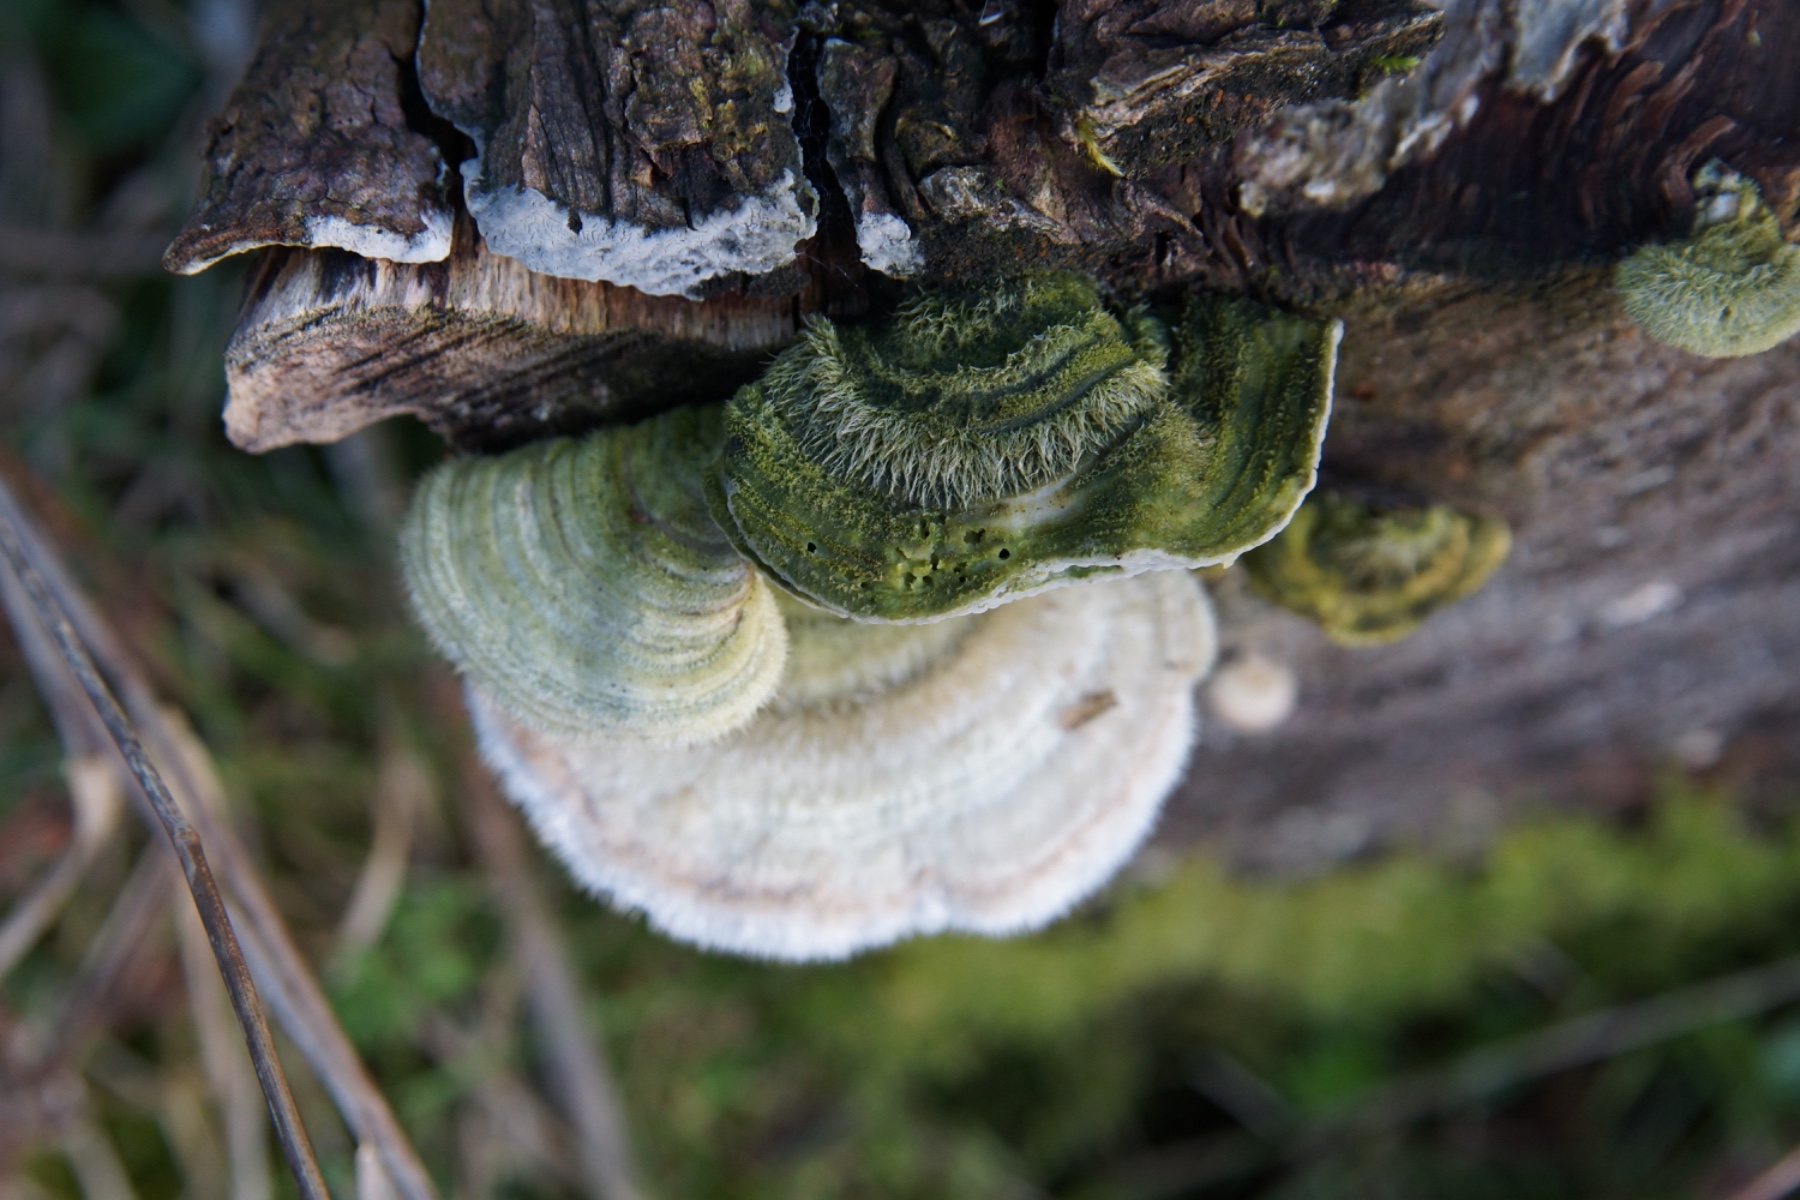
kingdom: Fungi
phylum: Basidiomycota
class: Agaricomycetes
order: Polyporales
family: Polyporaceae
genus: Trametes
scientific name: Trametes hirsuta
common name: håret læderporesvamp
